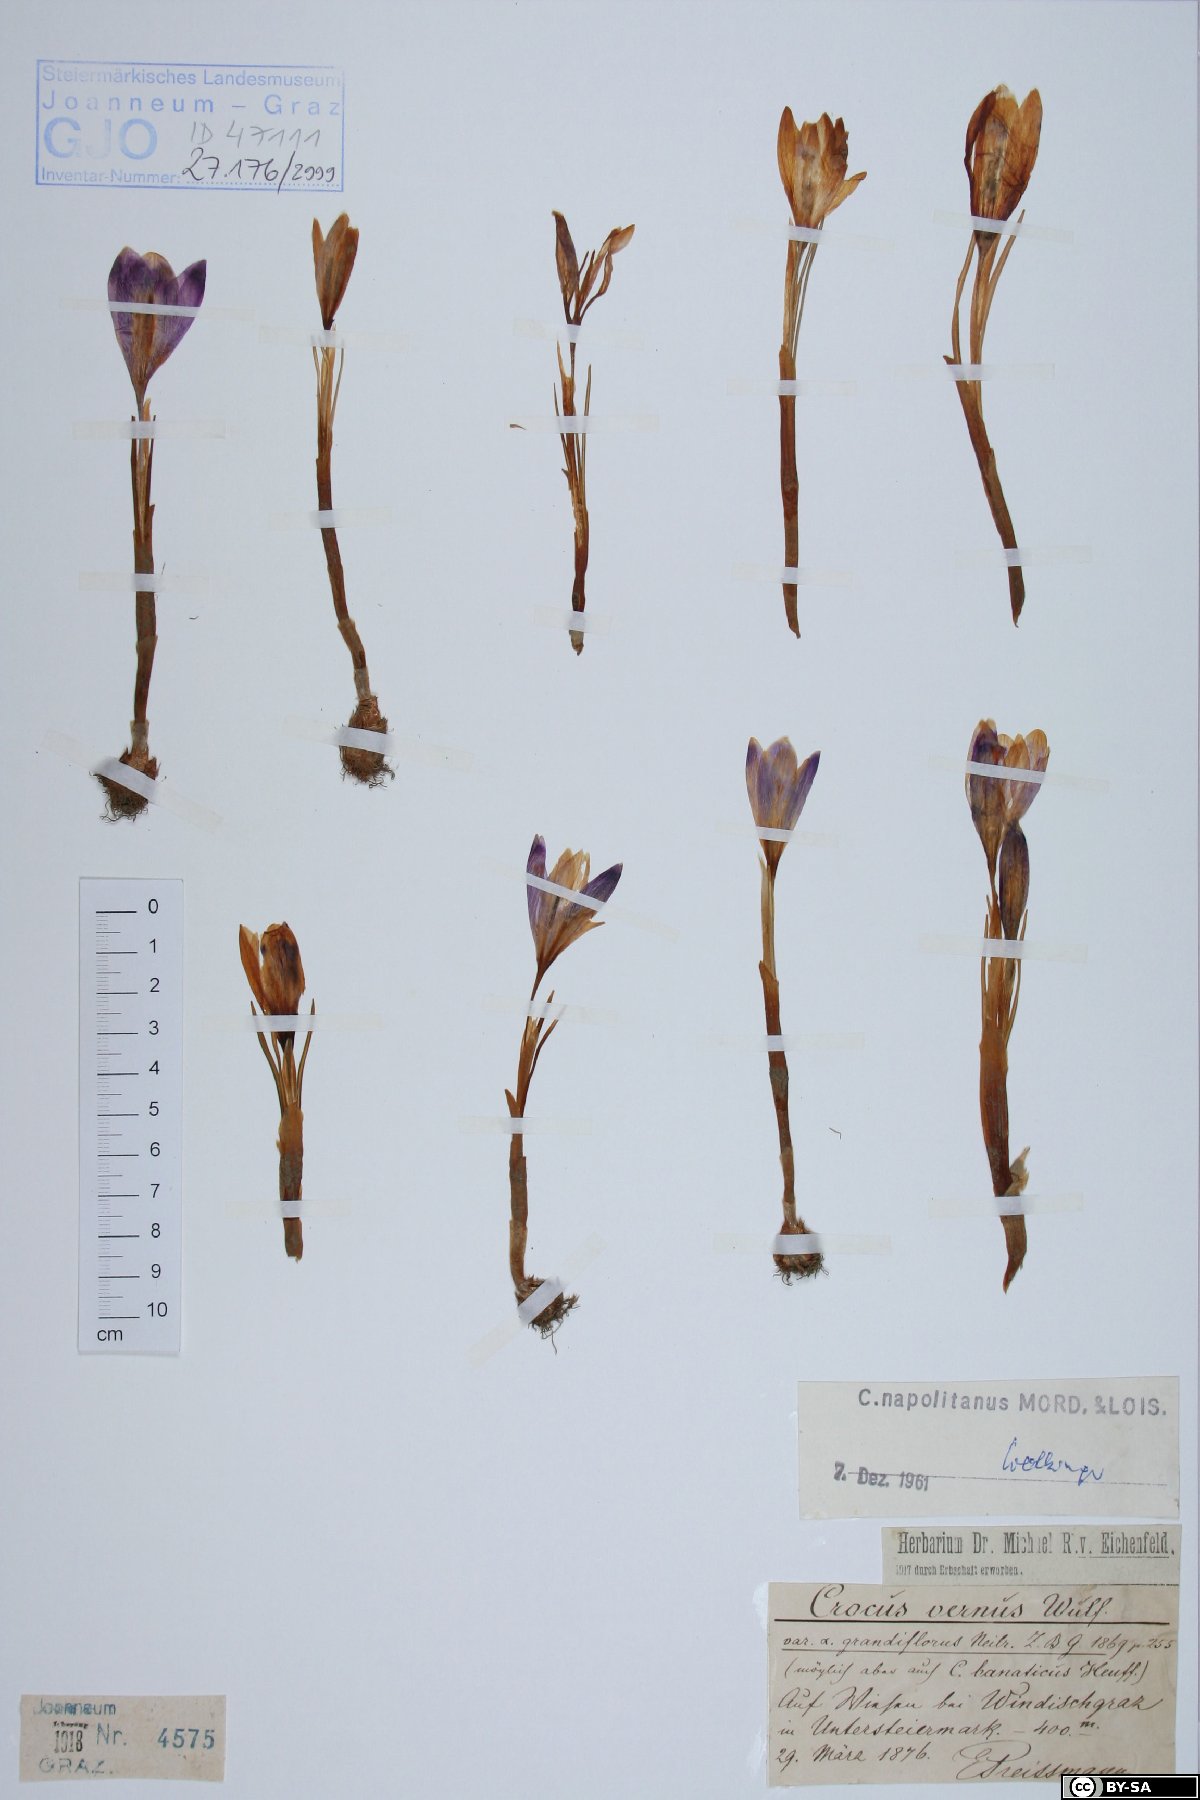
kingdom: Plantae
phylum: Tracheophyta
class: Liliopsida
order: Asparagales
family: Iridaceae
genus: Crocus
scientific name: Crocus vernus
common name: Spring crocus
